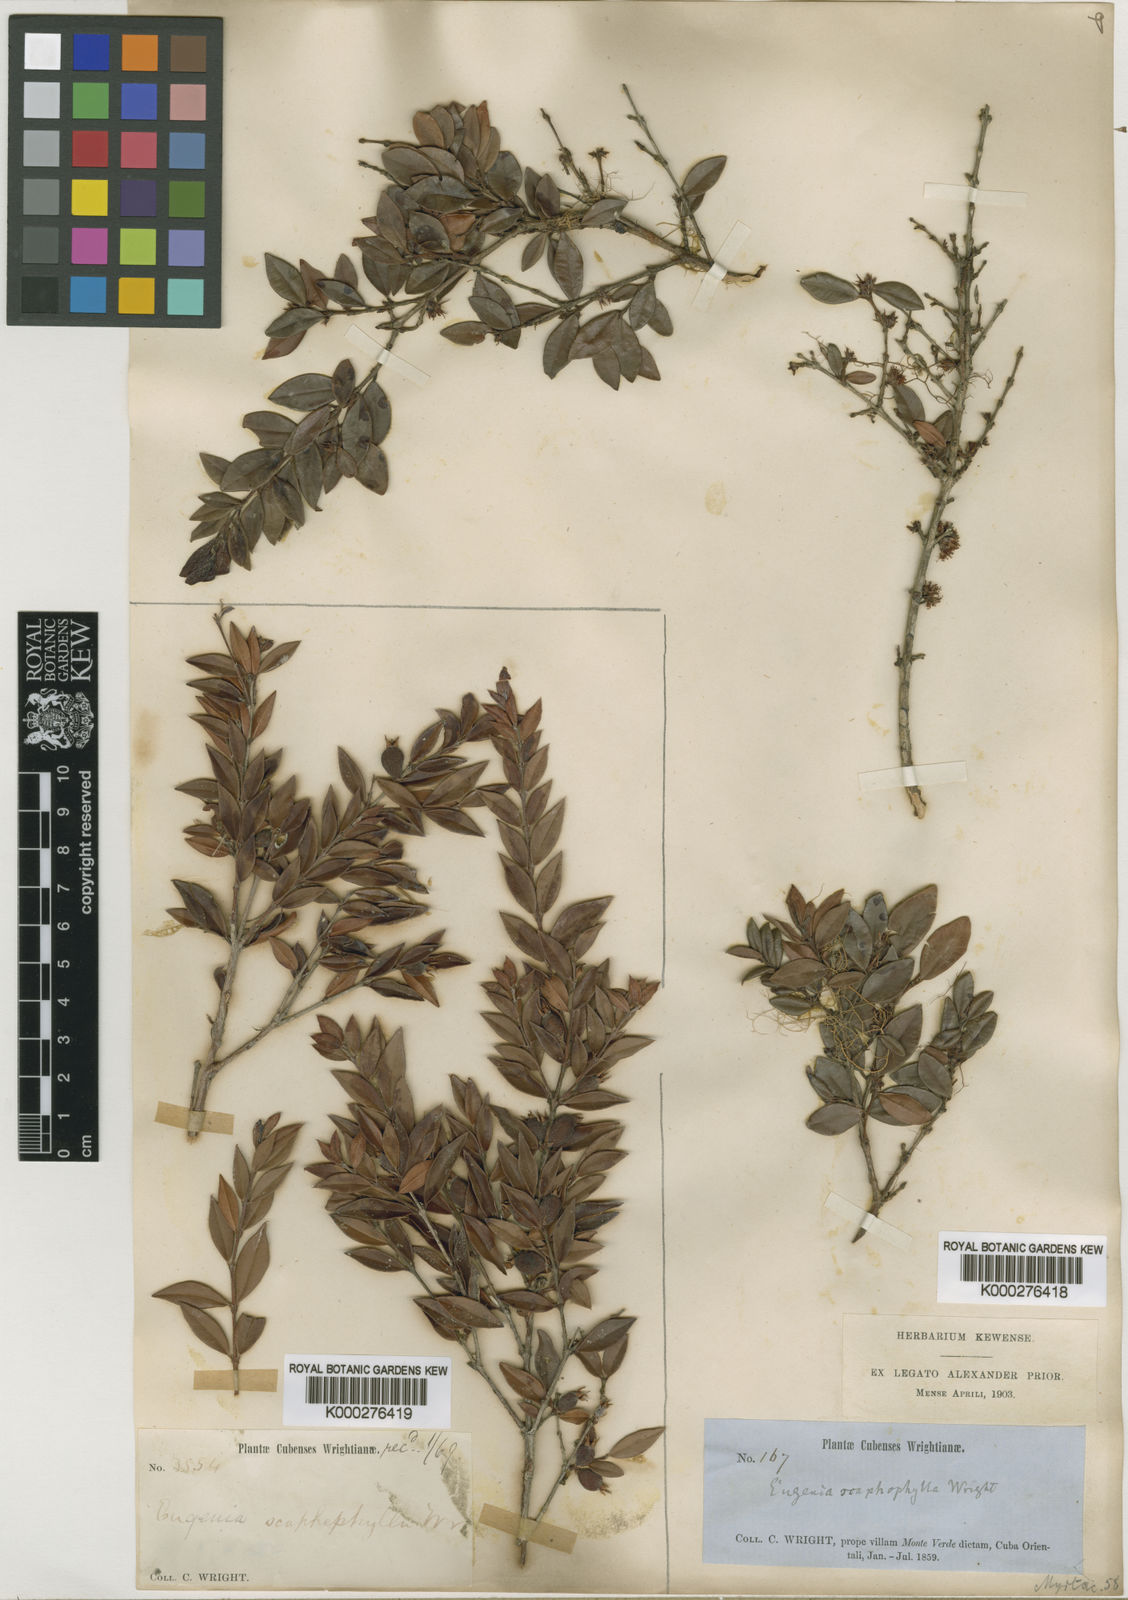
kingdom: Plantae
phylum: Tracheophyta
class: Magnoliopsida
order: Myrtales
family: Myrtaceae
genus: Eugenia
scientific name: Eugenia scaphephylla
